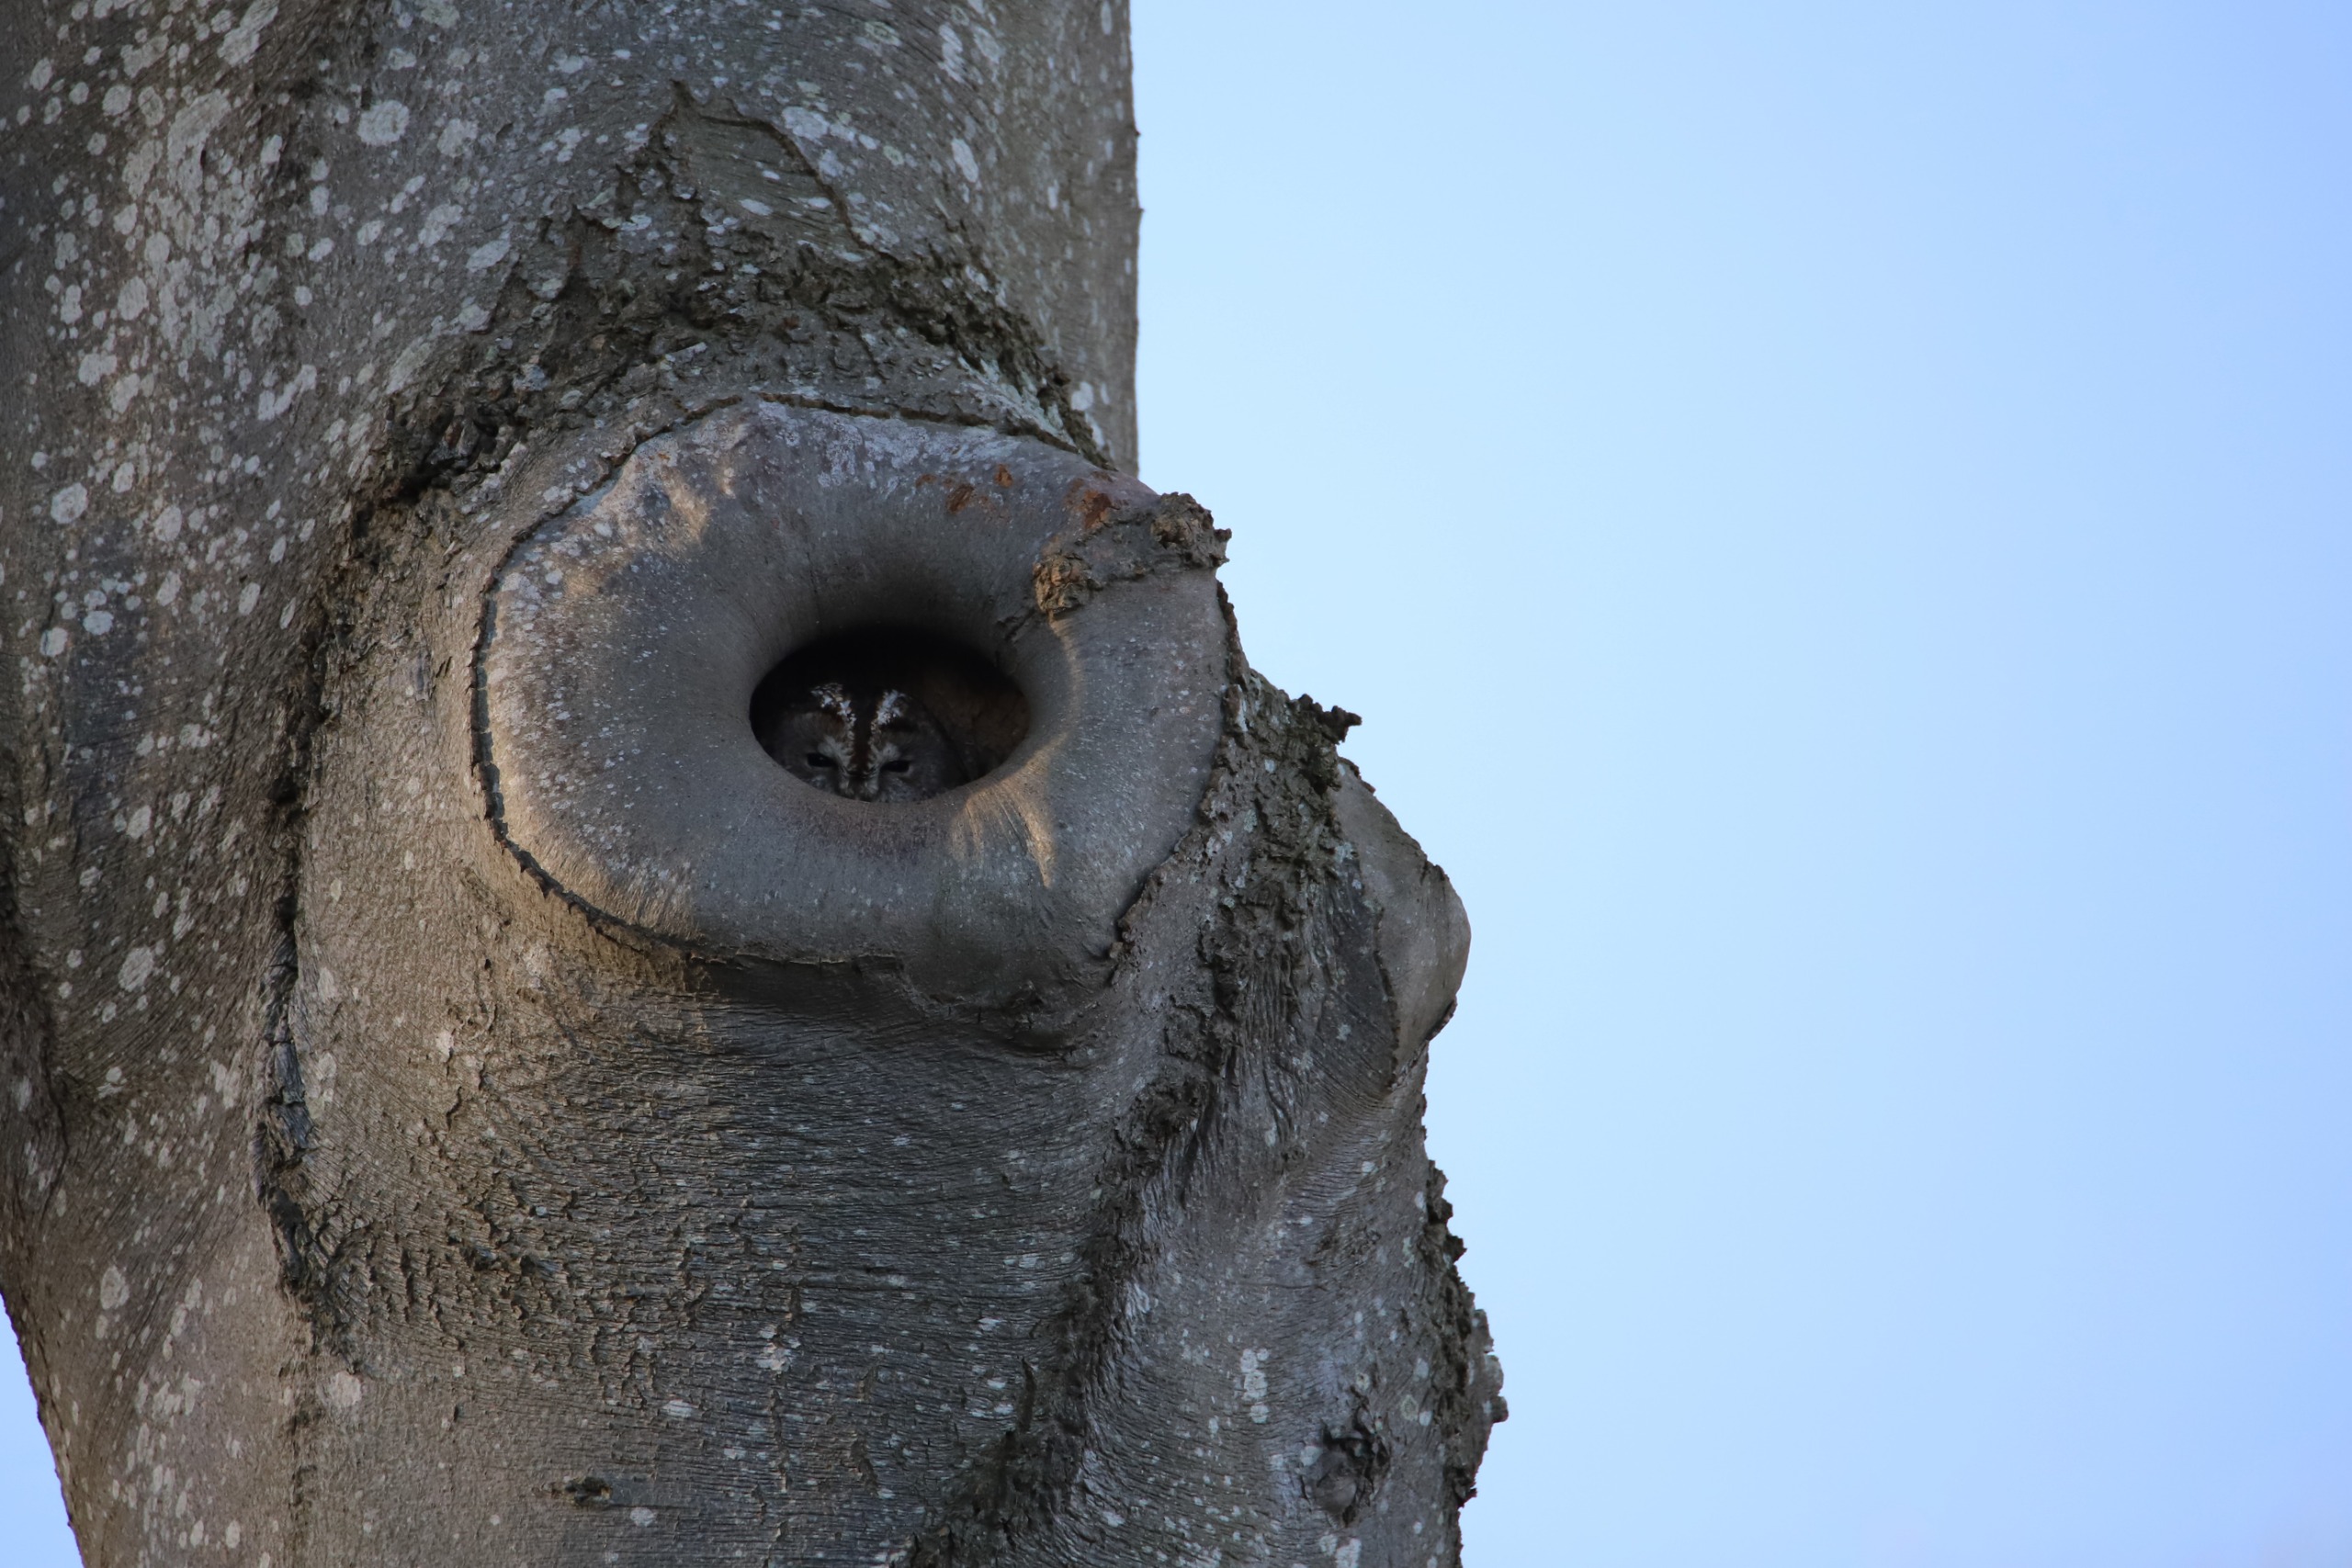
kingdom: Animalia
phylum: Chordata
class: Aves
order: Strigiformes
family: Strigidae
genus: Strix
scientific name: Strix aluco
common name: Natugle
